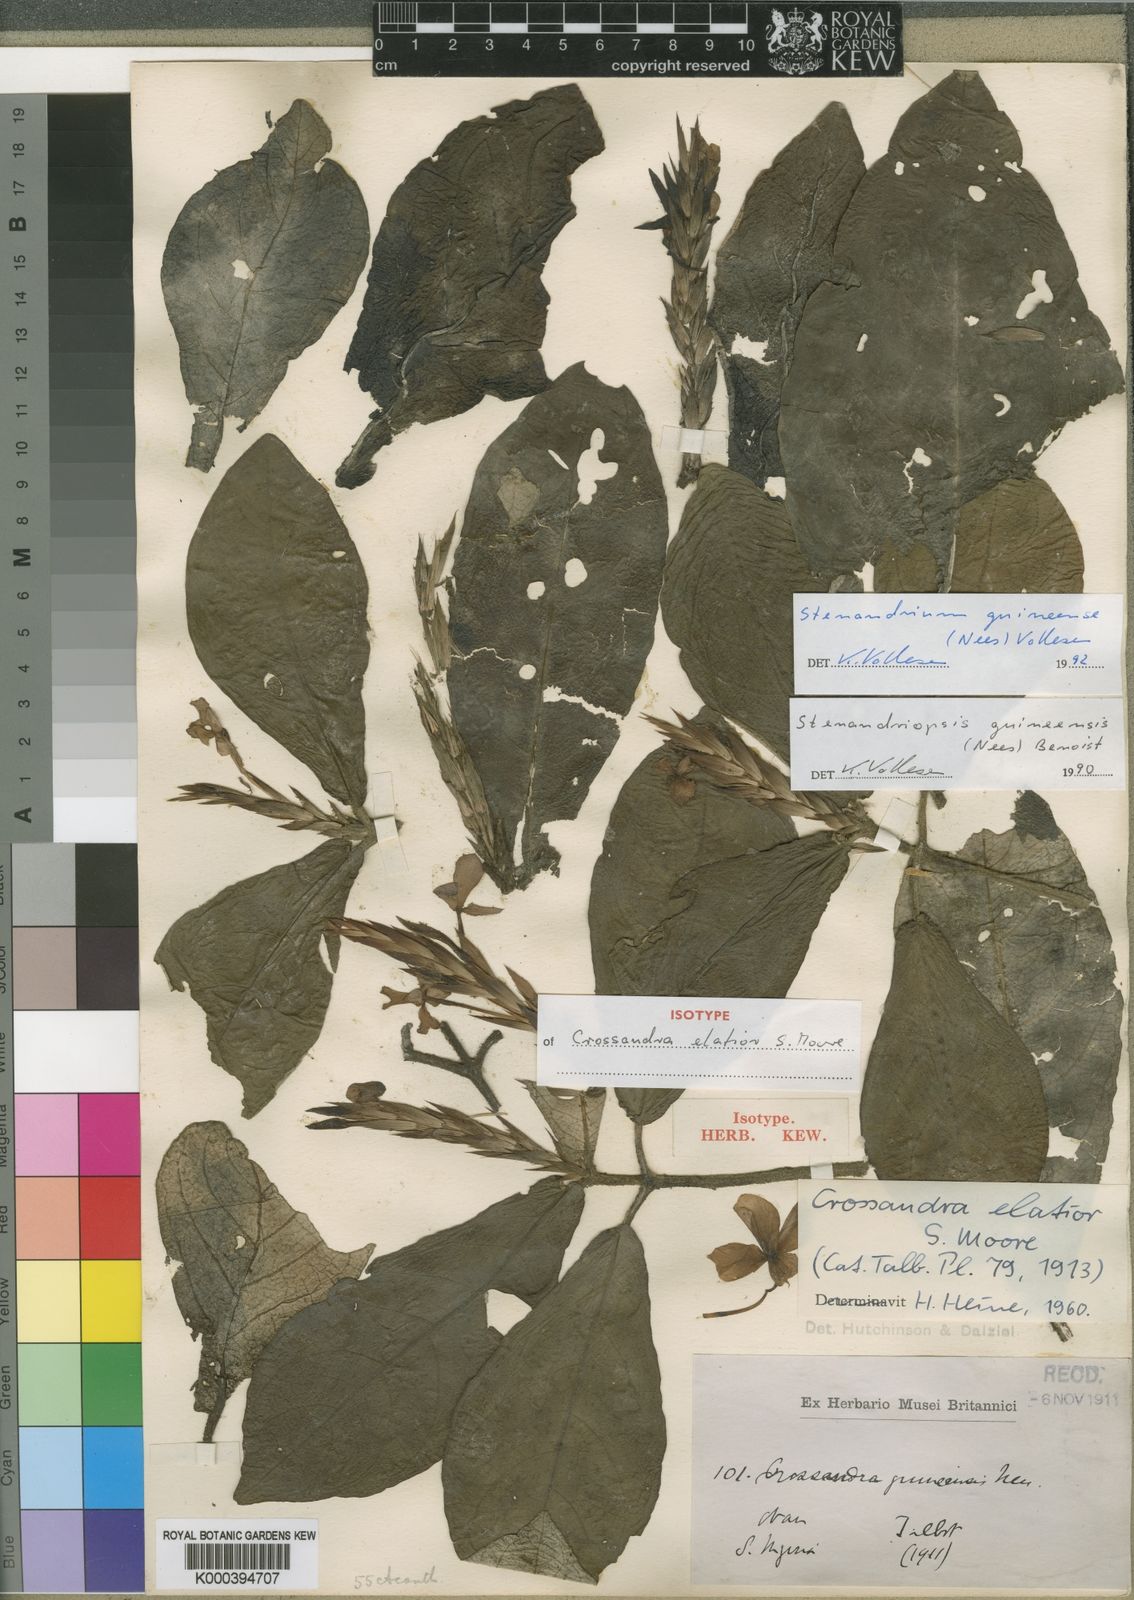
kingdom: Plantae
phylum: Tracheophyta
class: Magnoliopsida
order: Lamiales
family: Acanthaceae
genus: Stenandriopsis
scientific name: Stenandriopsis guineensis
